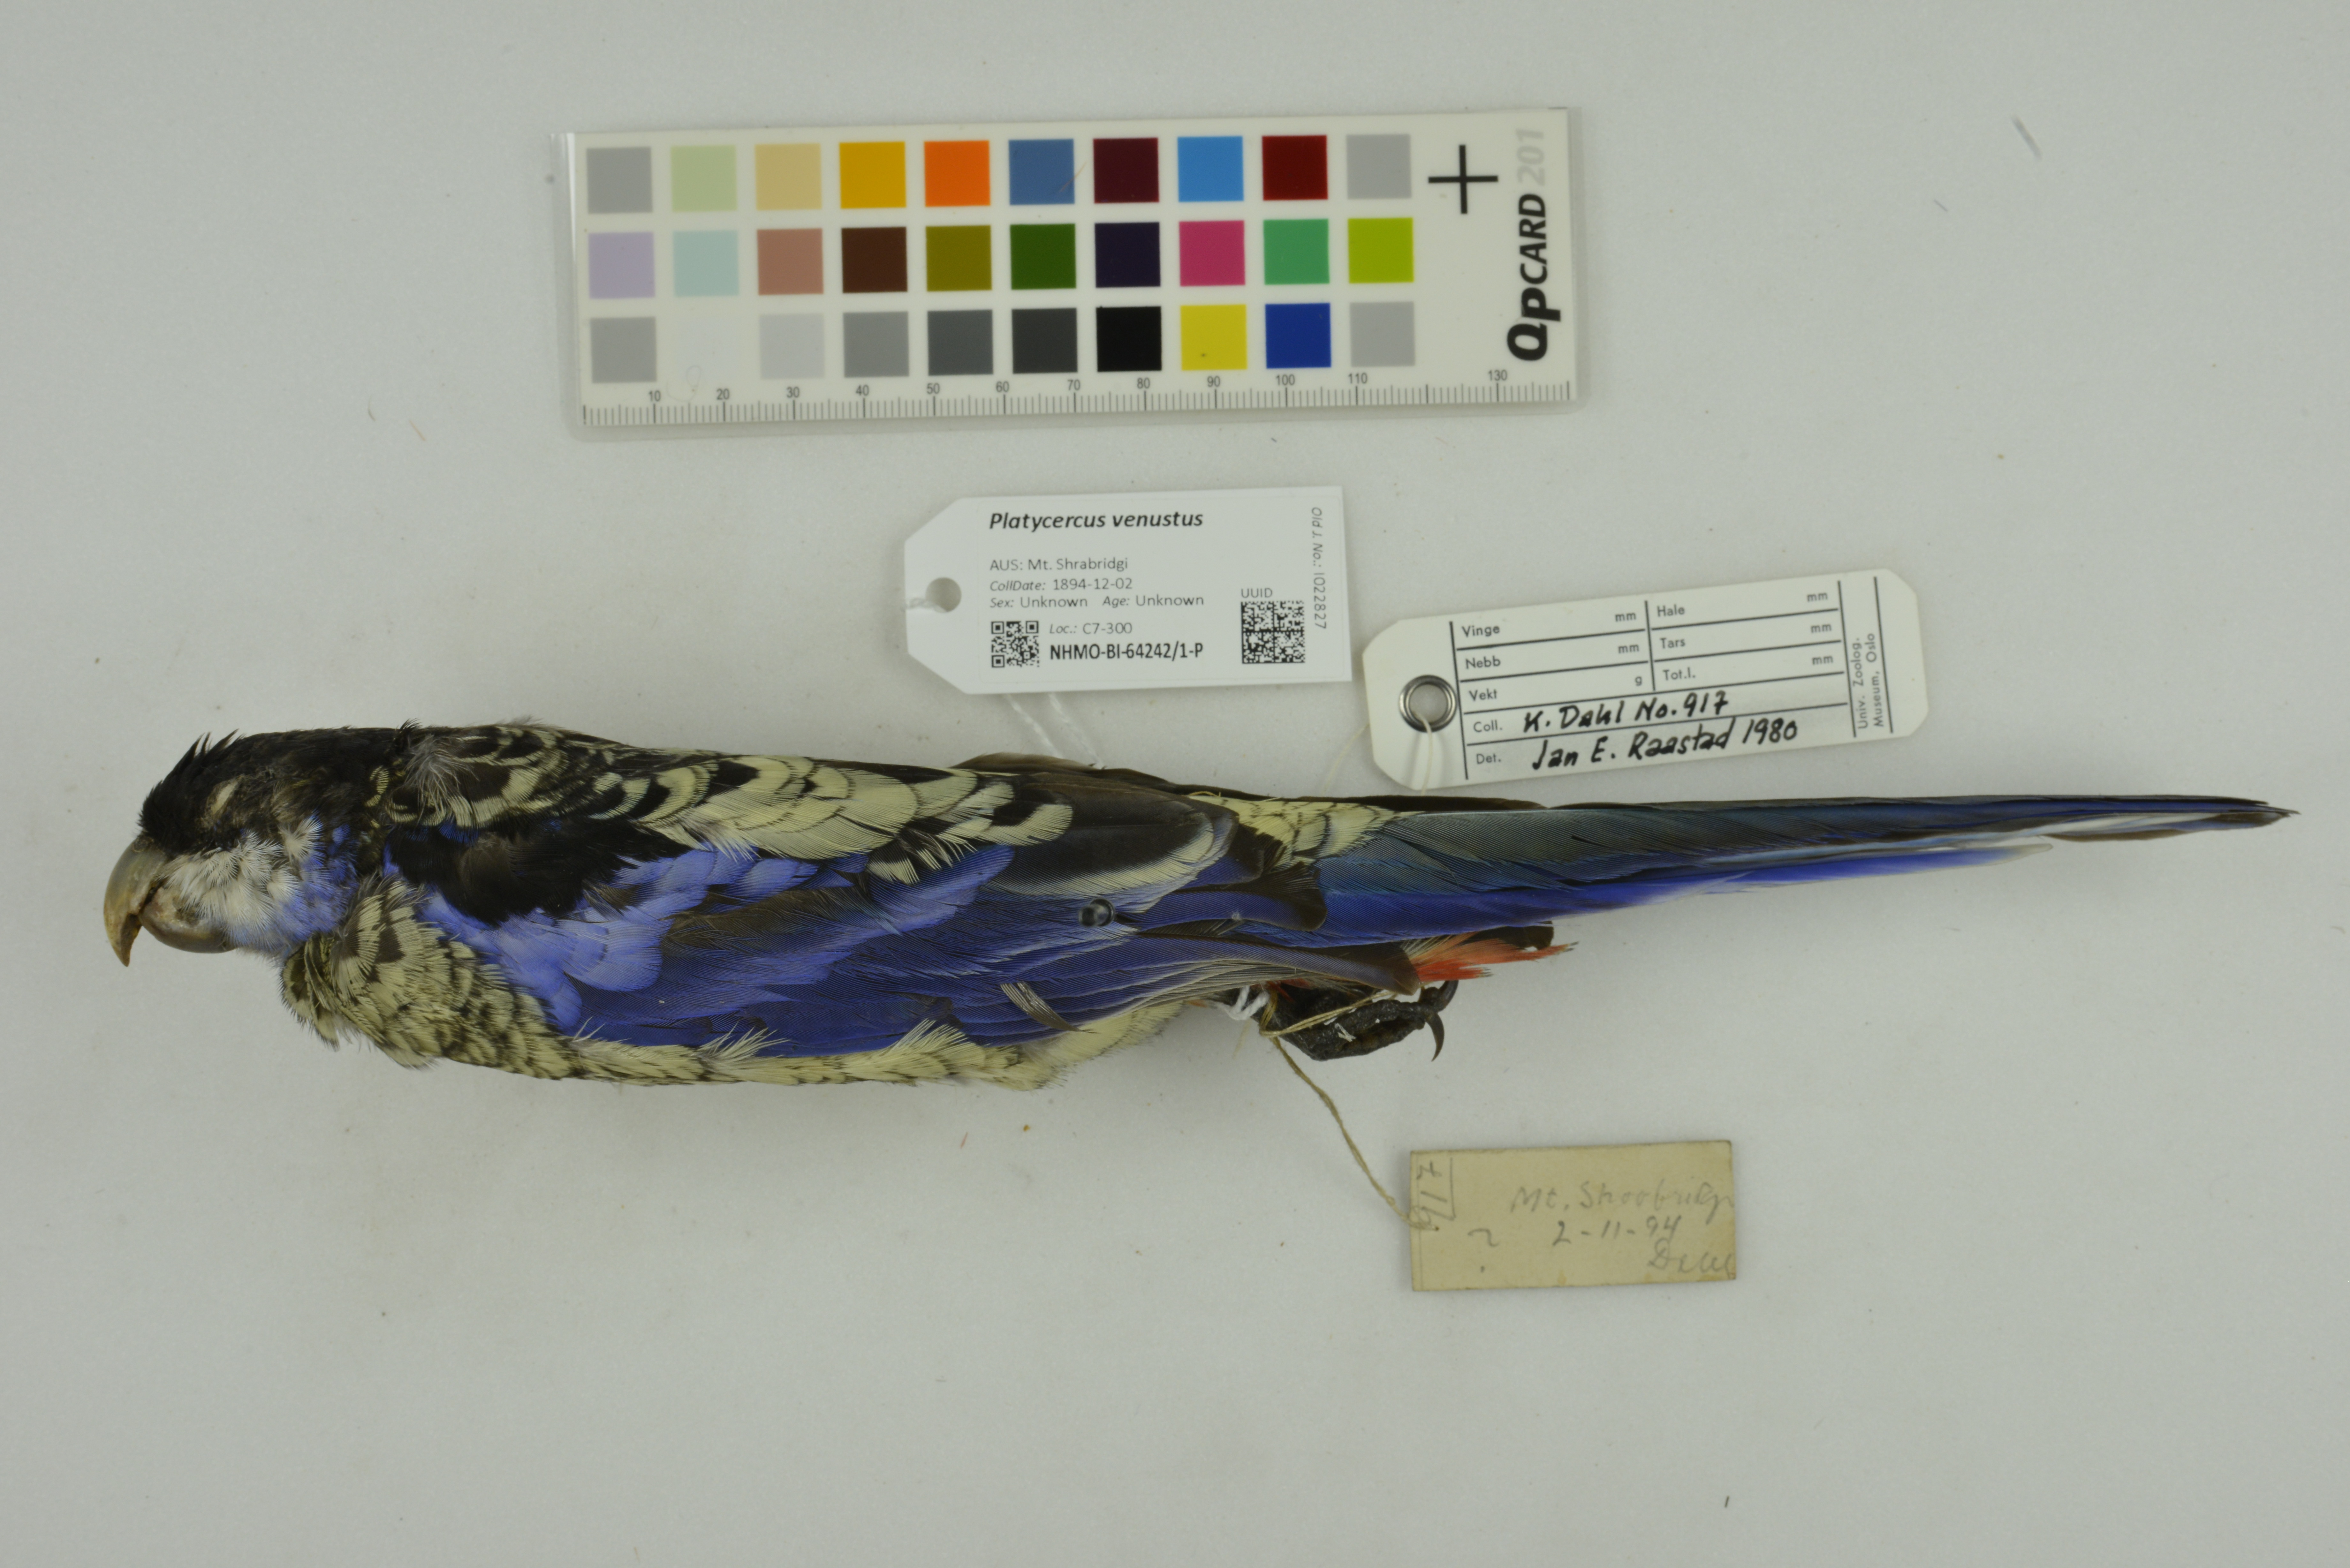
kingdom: Animalia
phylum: Chordata
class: Aves
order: Psittaciformes
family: Psittacidae
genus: Platycercus
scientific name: Platycercus venustus
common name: Northern rosella
